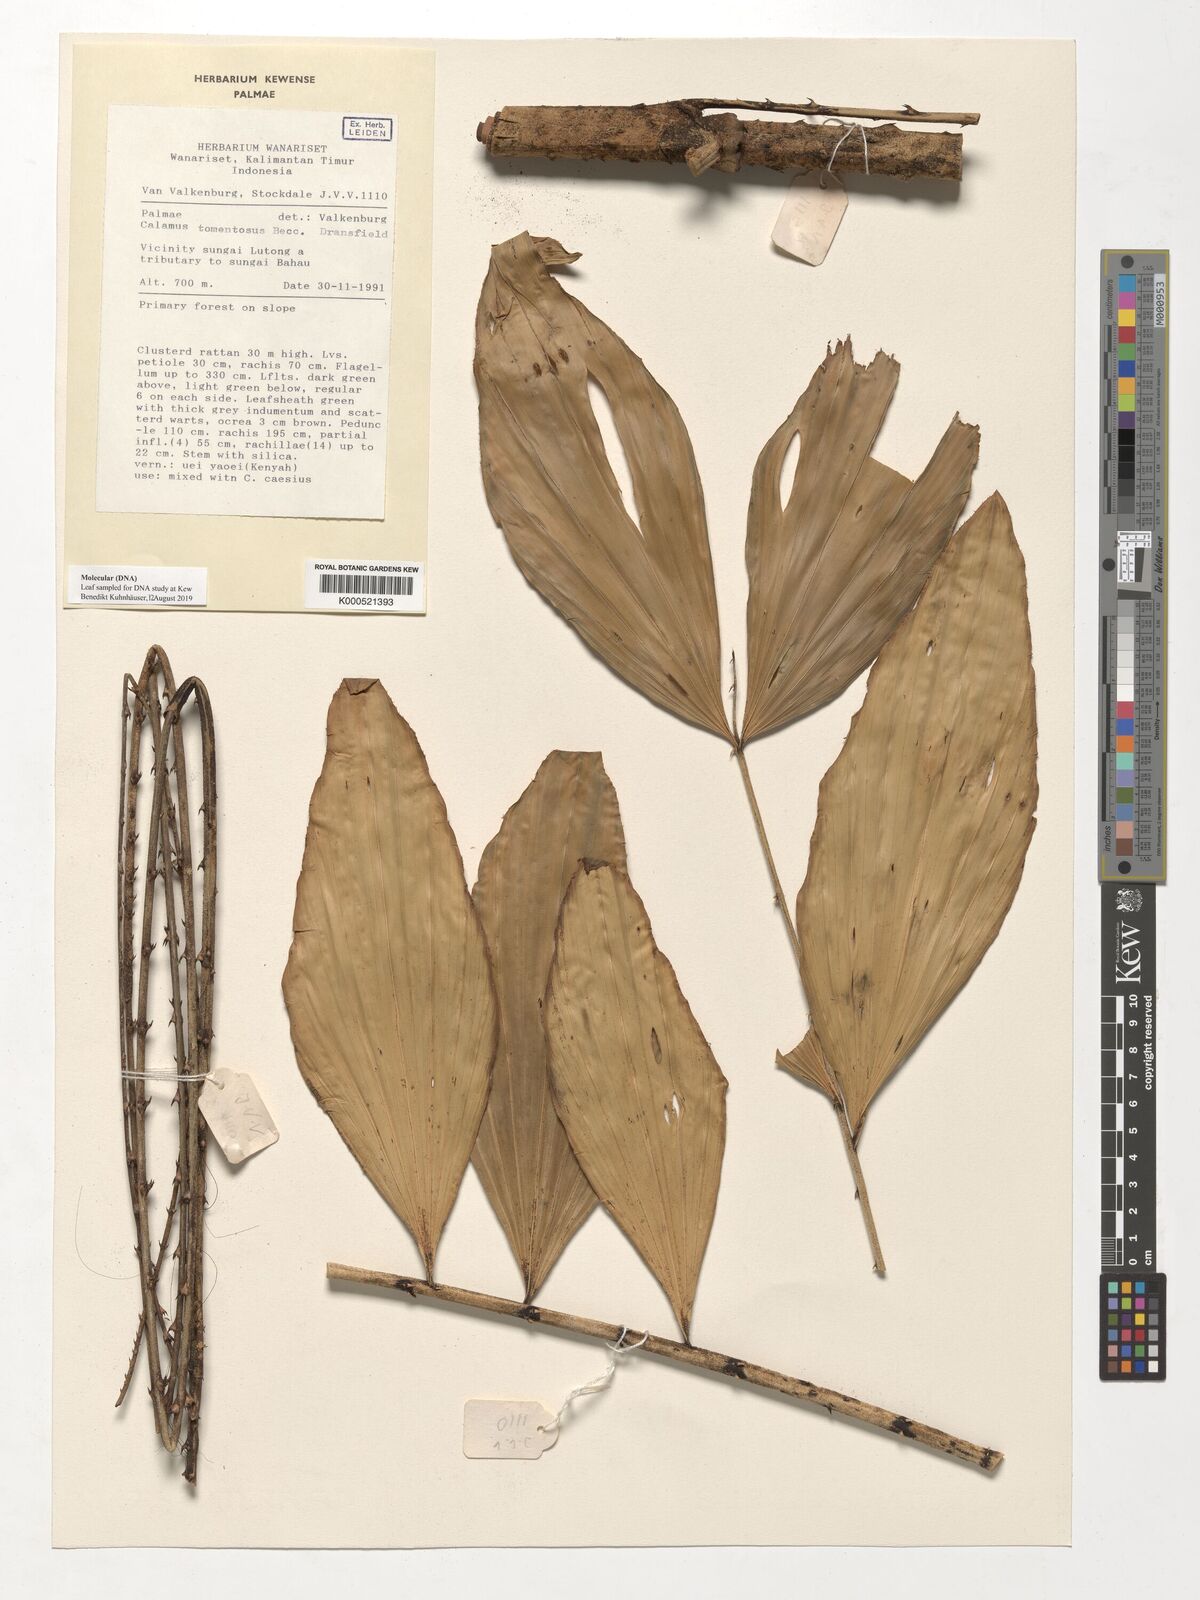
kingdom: Plantae
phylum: Tracheophyta
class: Liliopsida
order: Arecales
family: Arecaceae
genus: Calamus
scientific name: Calamus rhomboideus
